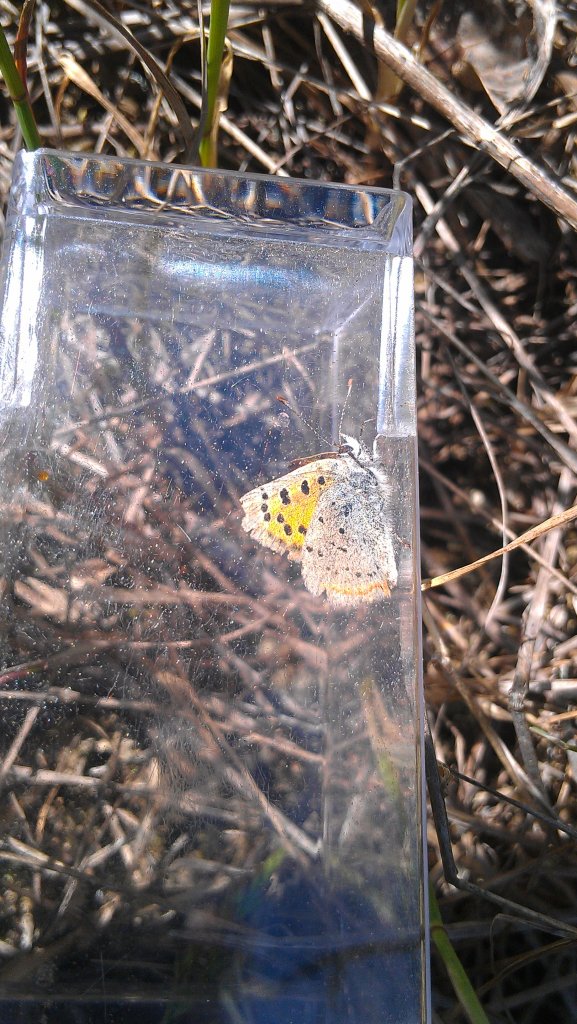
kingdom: Animalia
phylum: Arthropoda
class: Insecta
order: Lepidoptera
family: Lycaenidae
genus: Lycaena
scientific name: Lycaena phlaeas
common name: American Copper
